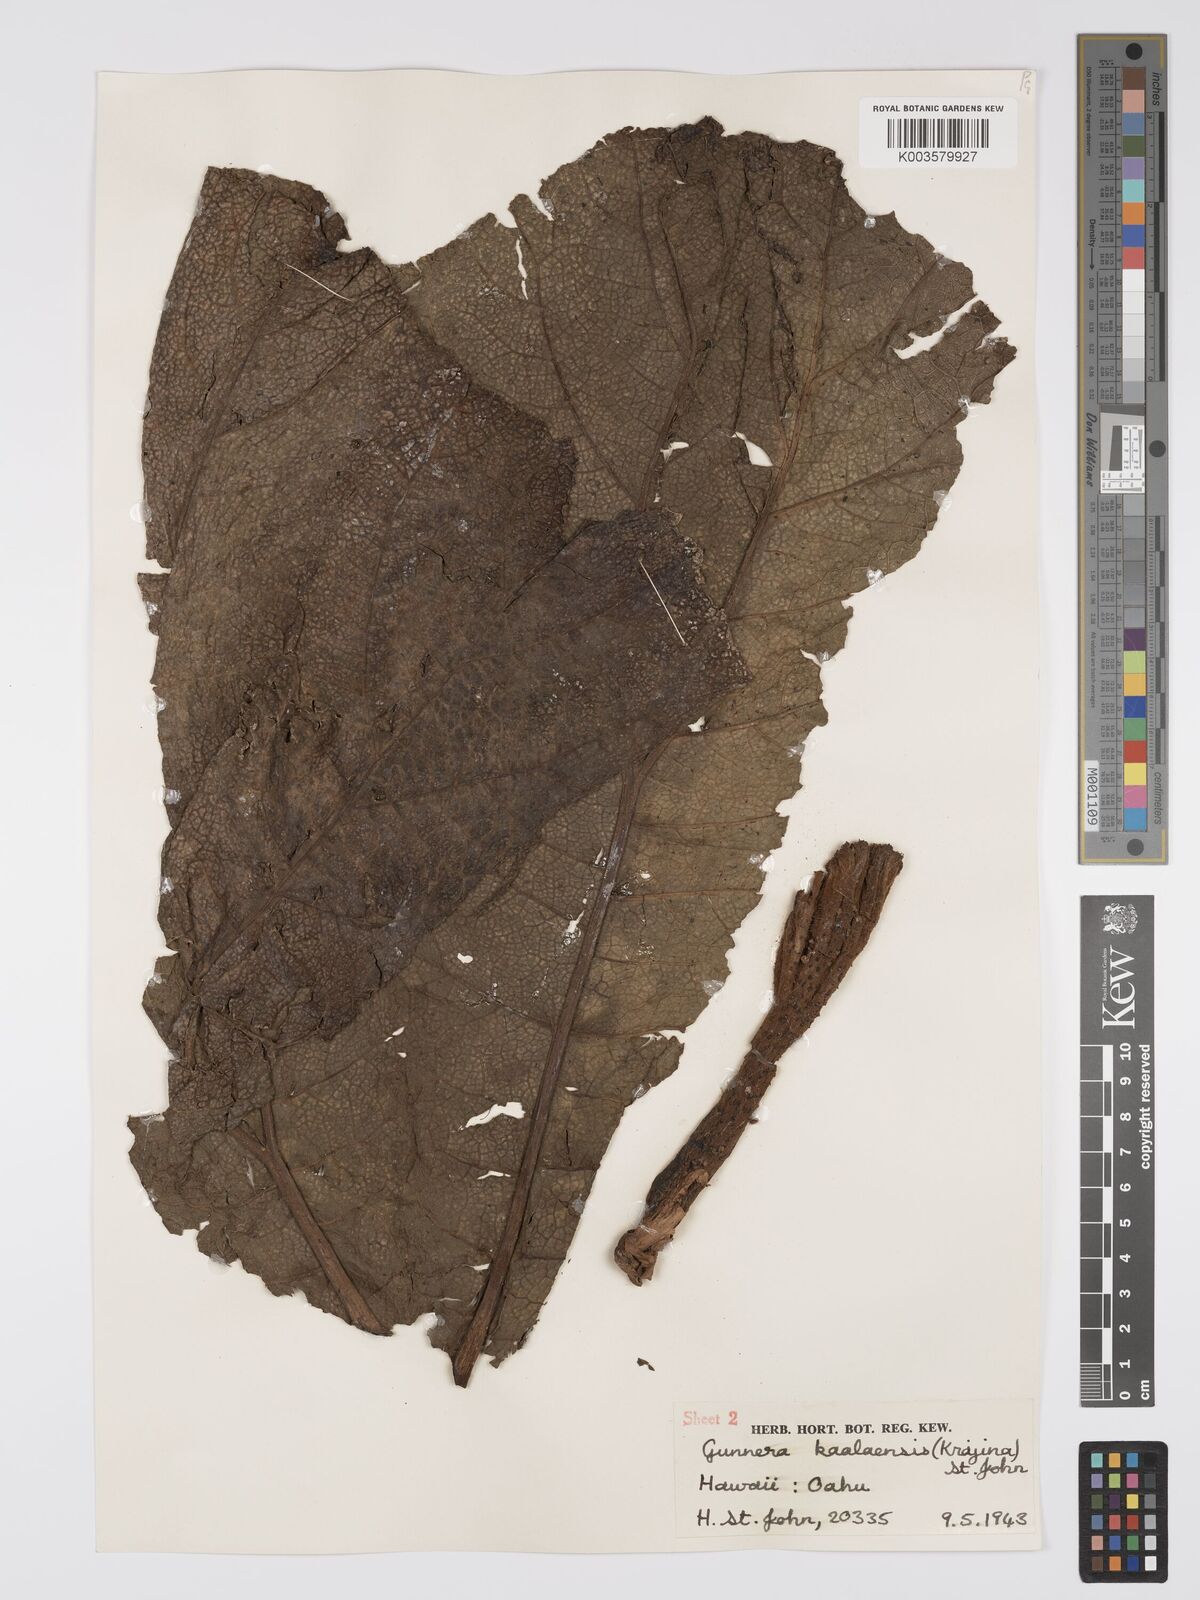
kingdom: Plantae
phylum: Tracheophyta
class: Magnoliopsida
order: Gunnerales
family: Gunneraceae
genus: Gunnera
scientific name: Gunnera petaloidea
